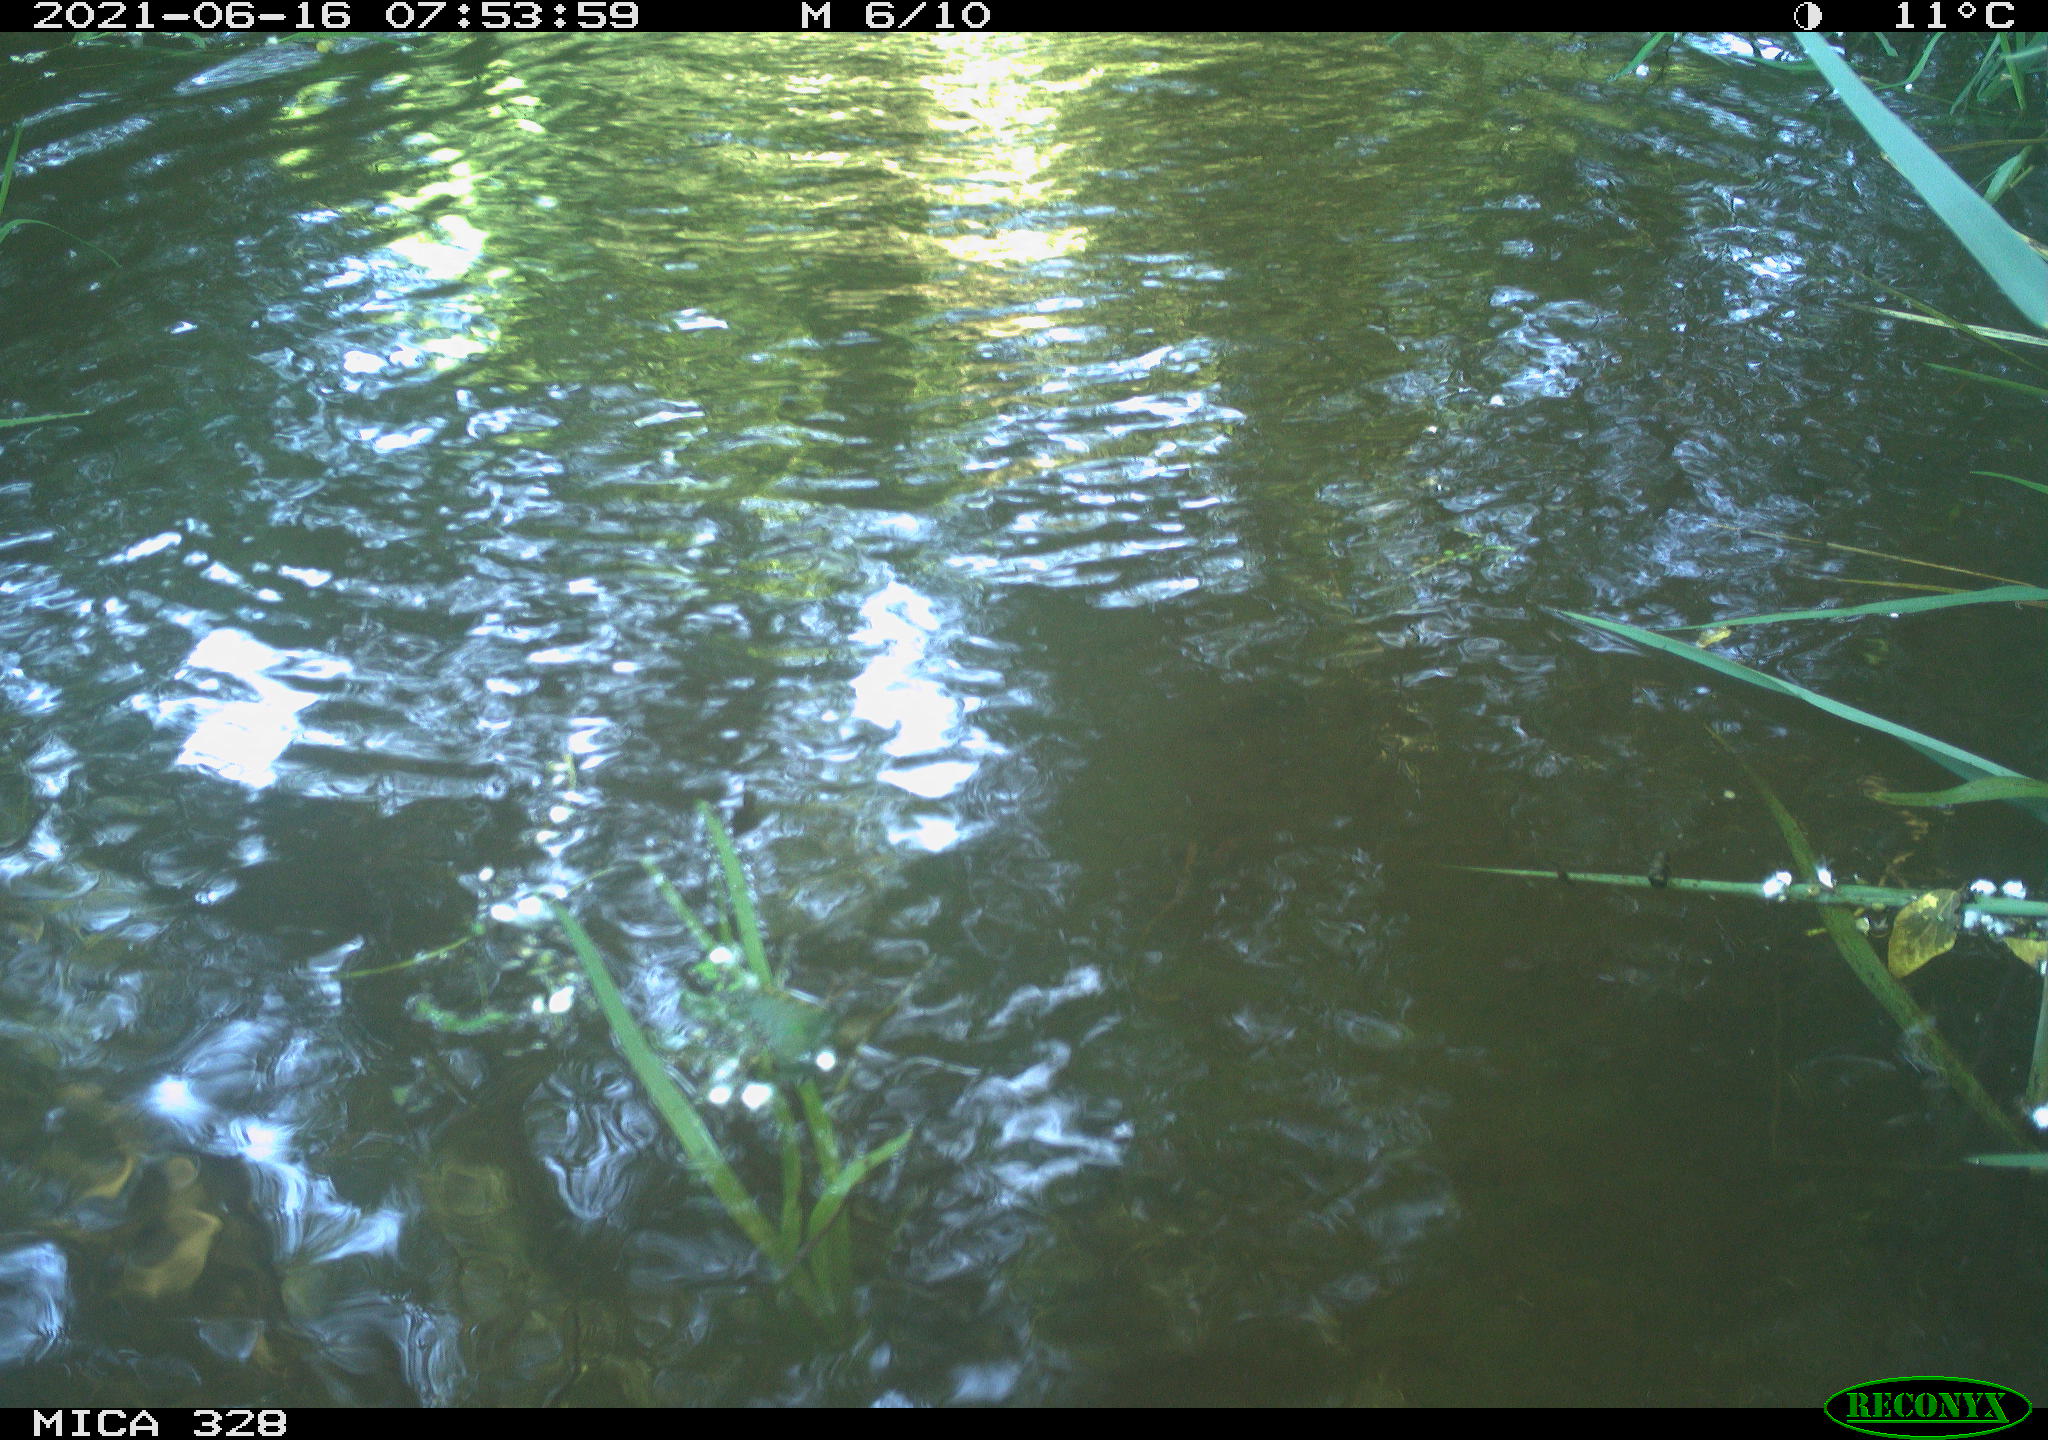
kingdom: Animalia
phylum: Chordata
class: Mammalia
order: Rodentia
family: Cricetidae
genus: Ondatra
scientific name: Ondatra zibethicus
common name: Muskrat
